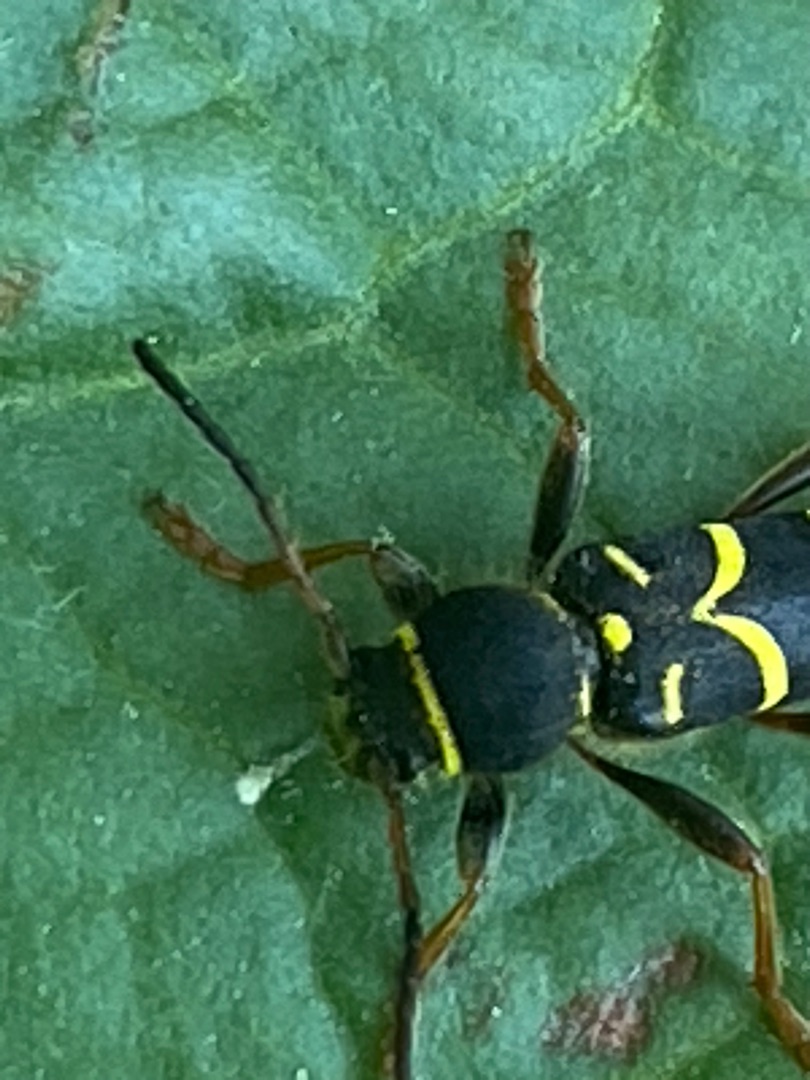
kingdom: Animalia
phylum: Arthropoda
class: Insecta
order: Coleoptera
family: Cerambycidae
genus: Clytus
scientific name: Clytus arietis
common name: Lille hvepsebuk
